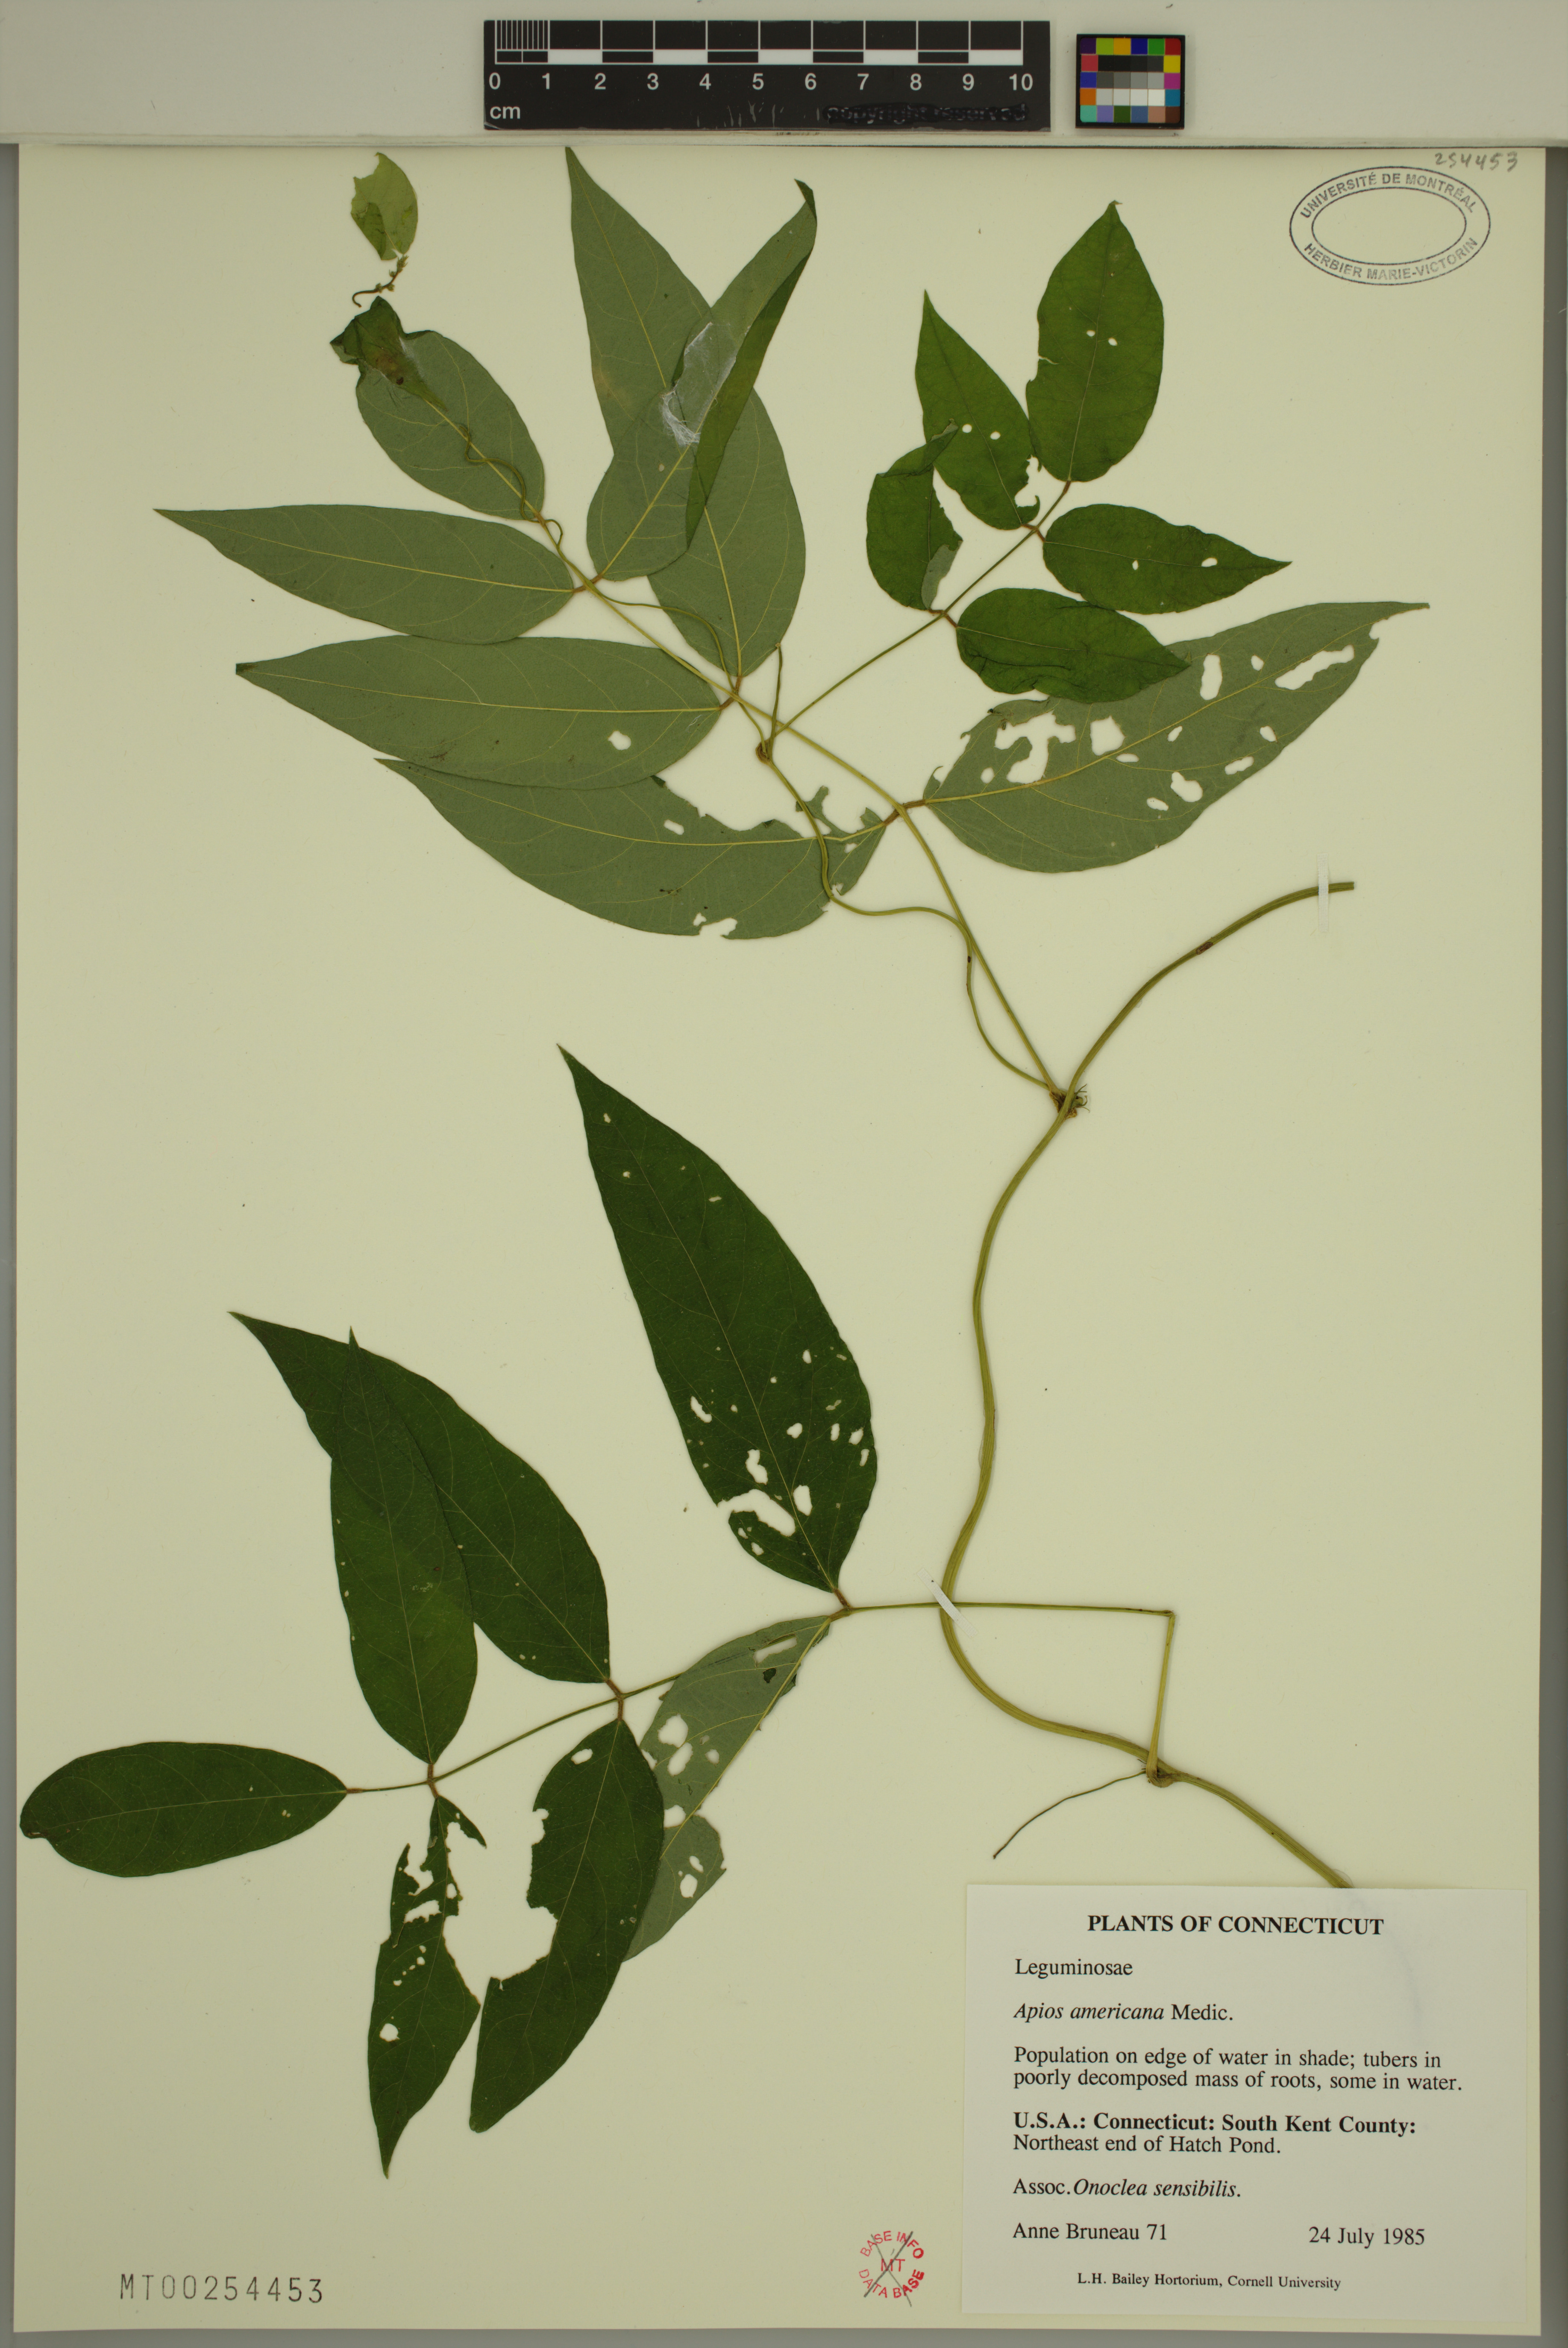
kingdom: Plantae
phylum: Tracheophyta
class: Magnoliopsida
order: Fabales
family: Fabaceae
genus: Apios
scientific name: Apios americana
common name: American potato-bean
